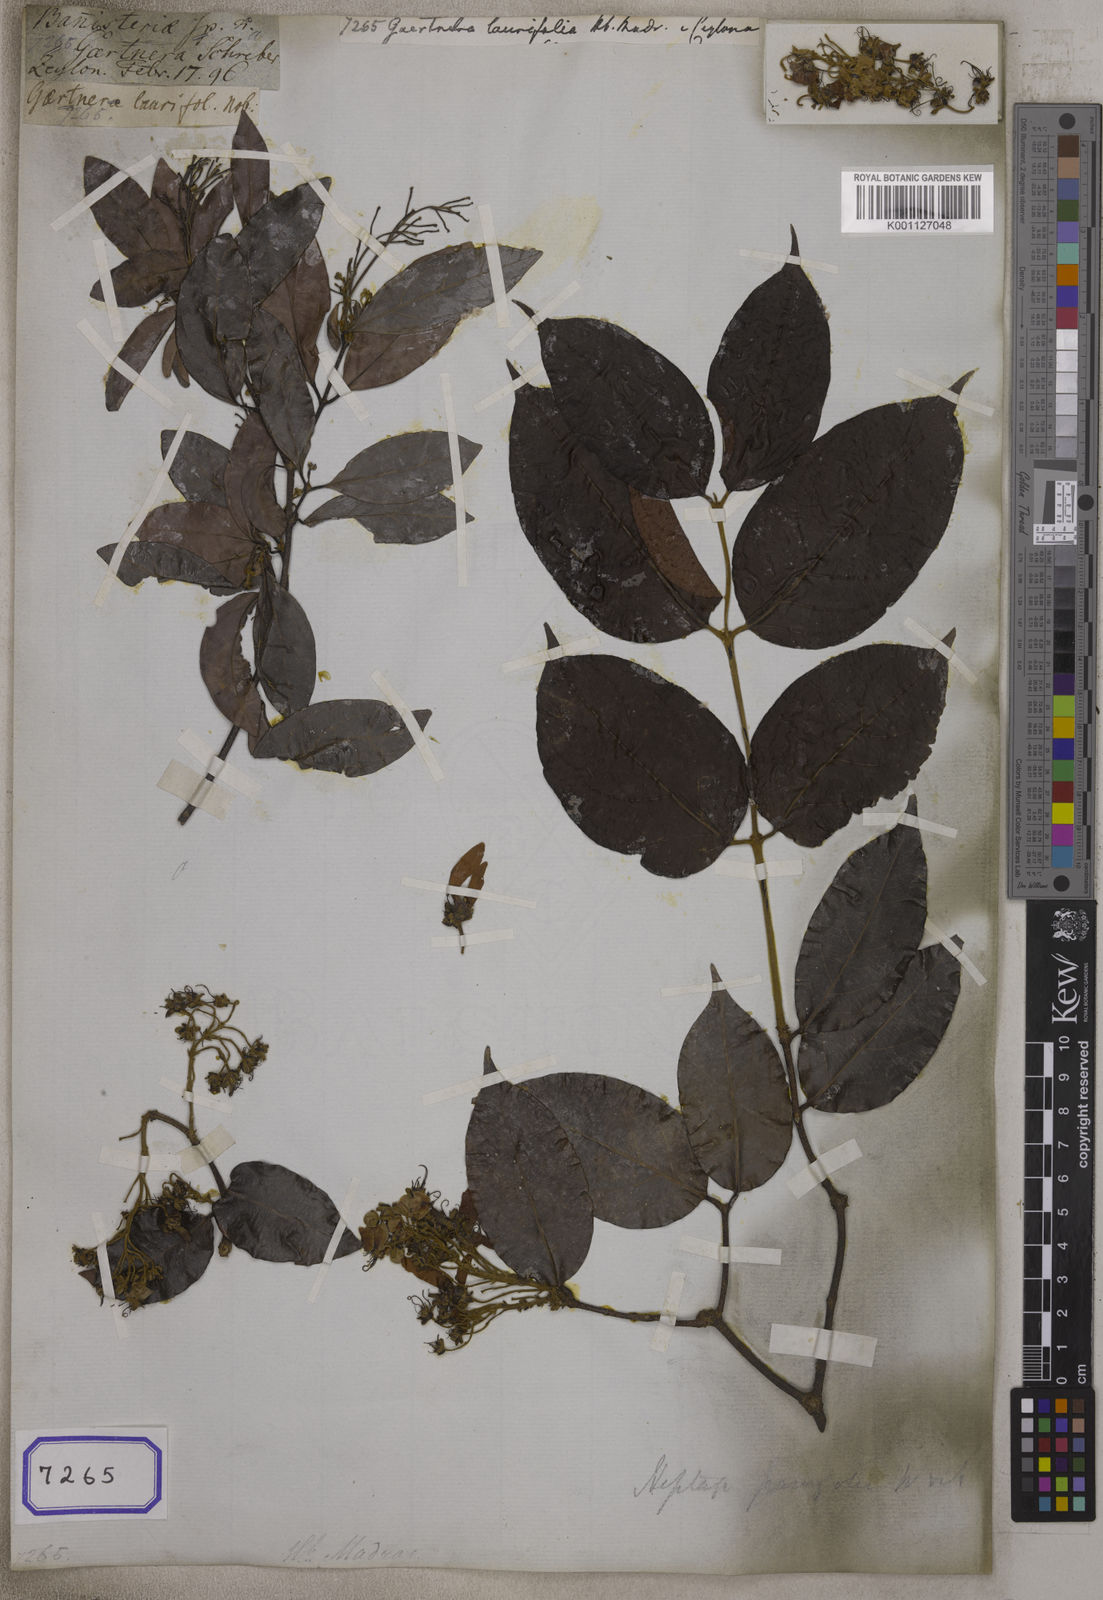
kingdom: Plantae
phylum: Tracheophyta
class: Magnoliopsida
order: Gentianales
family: Rubiaceae
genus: Gaertnera
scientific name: Gaertnera
